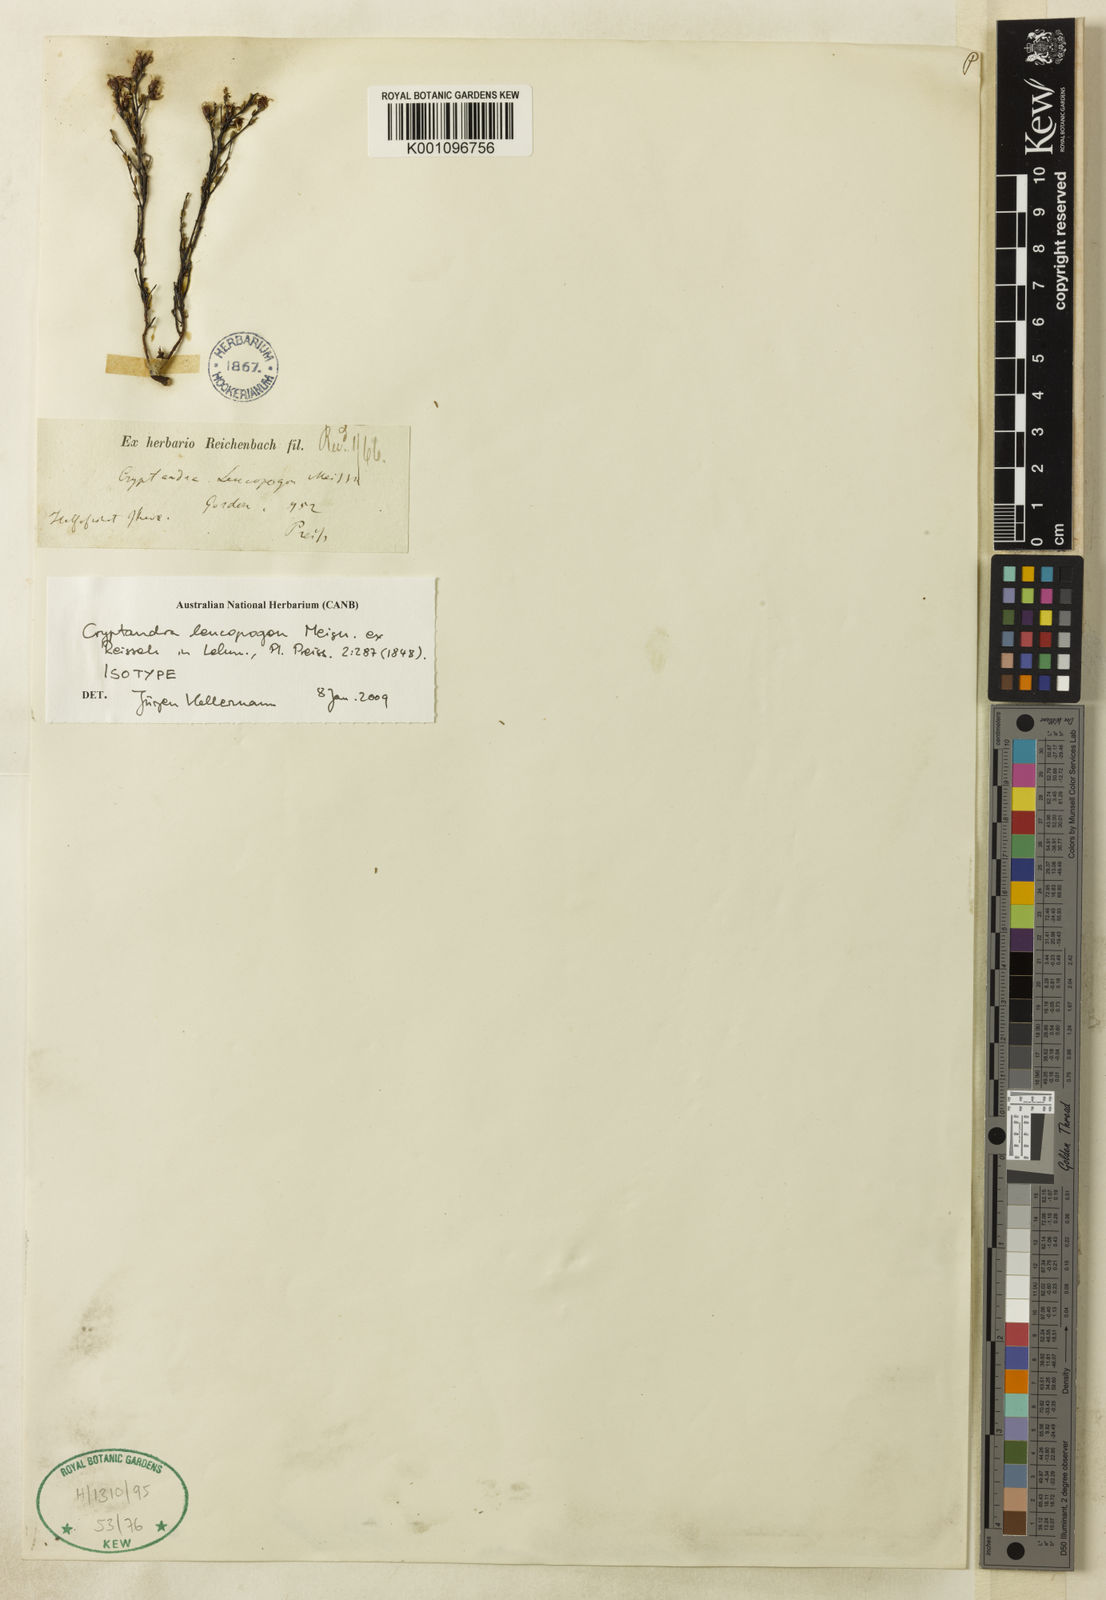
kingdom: Plantae
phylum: Tracheophyta
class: Magnoliopsida
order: Rosales
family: Rhamnaceae
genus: Cryptandra
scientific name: Cryptandra leucopogon
